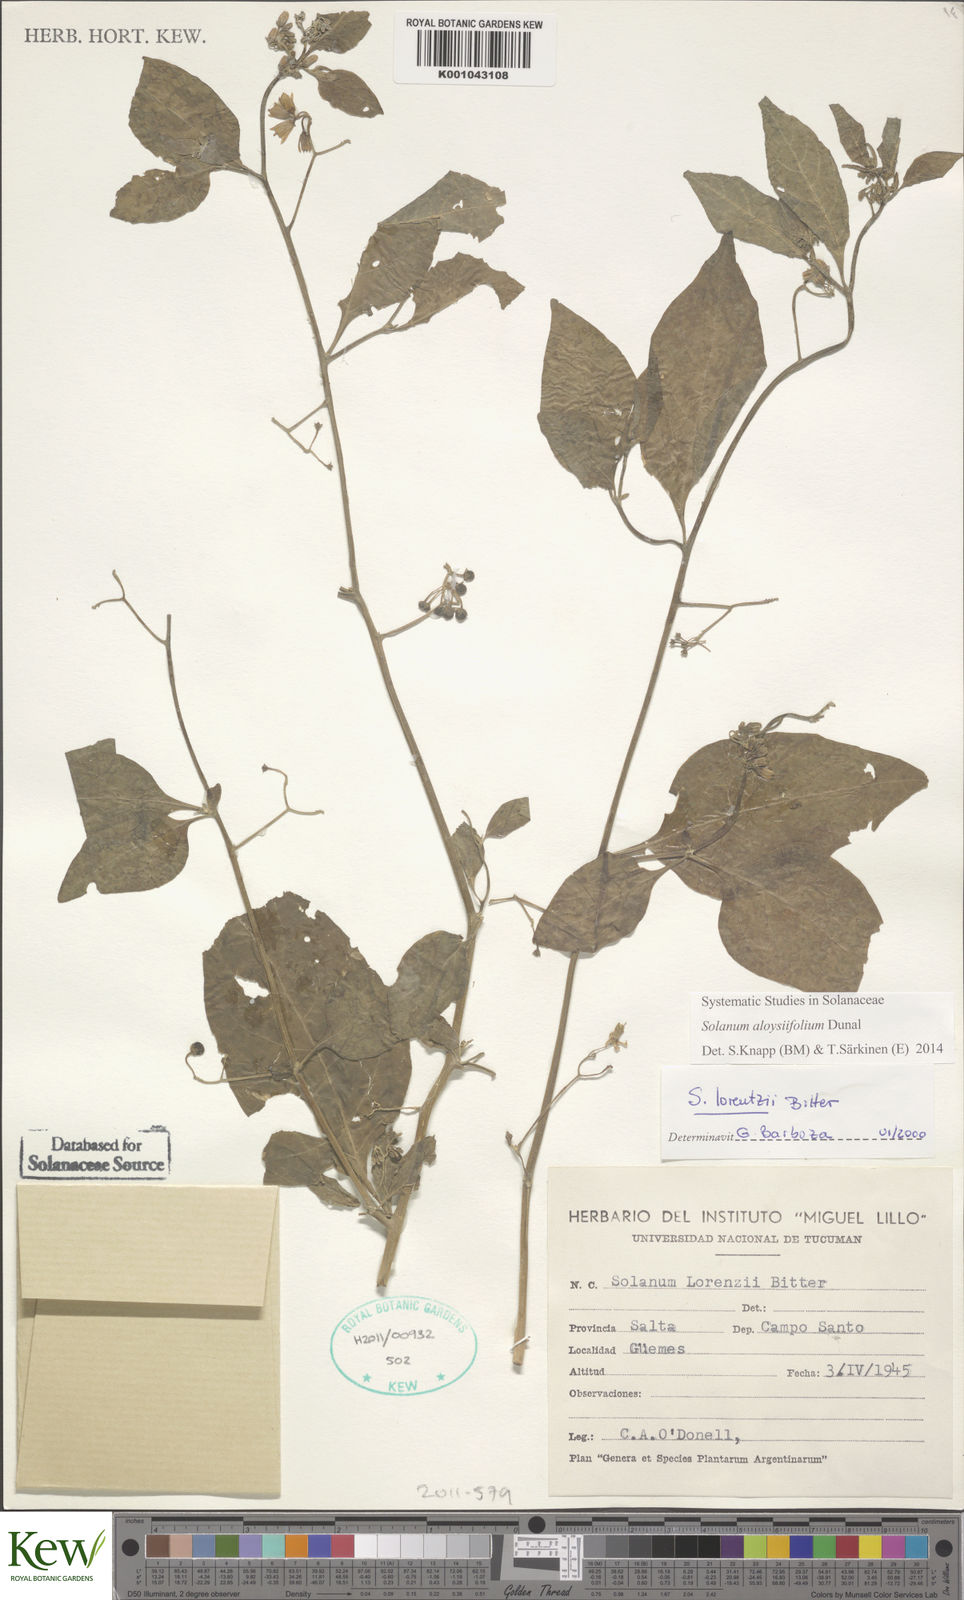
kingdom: Plantae
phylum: Tracheophyta
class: Magnoliopsida
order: Solanales
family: Solanaceae
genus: Solanum
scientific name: Solanum aloysiifolium
